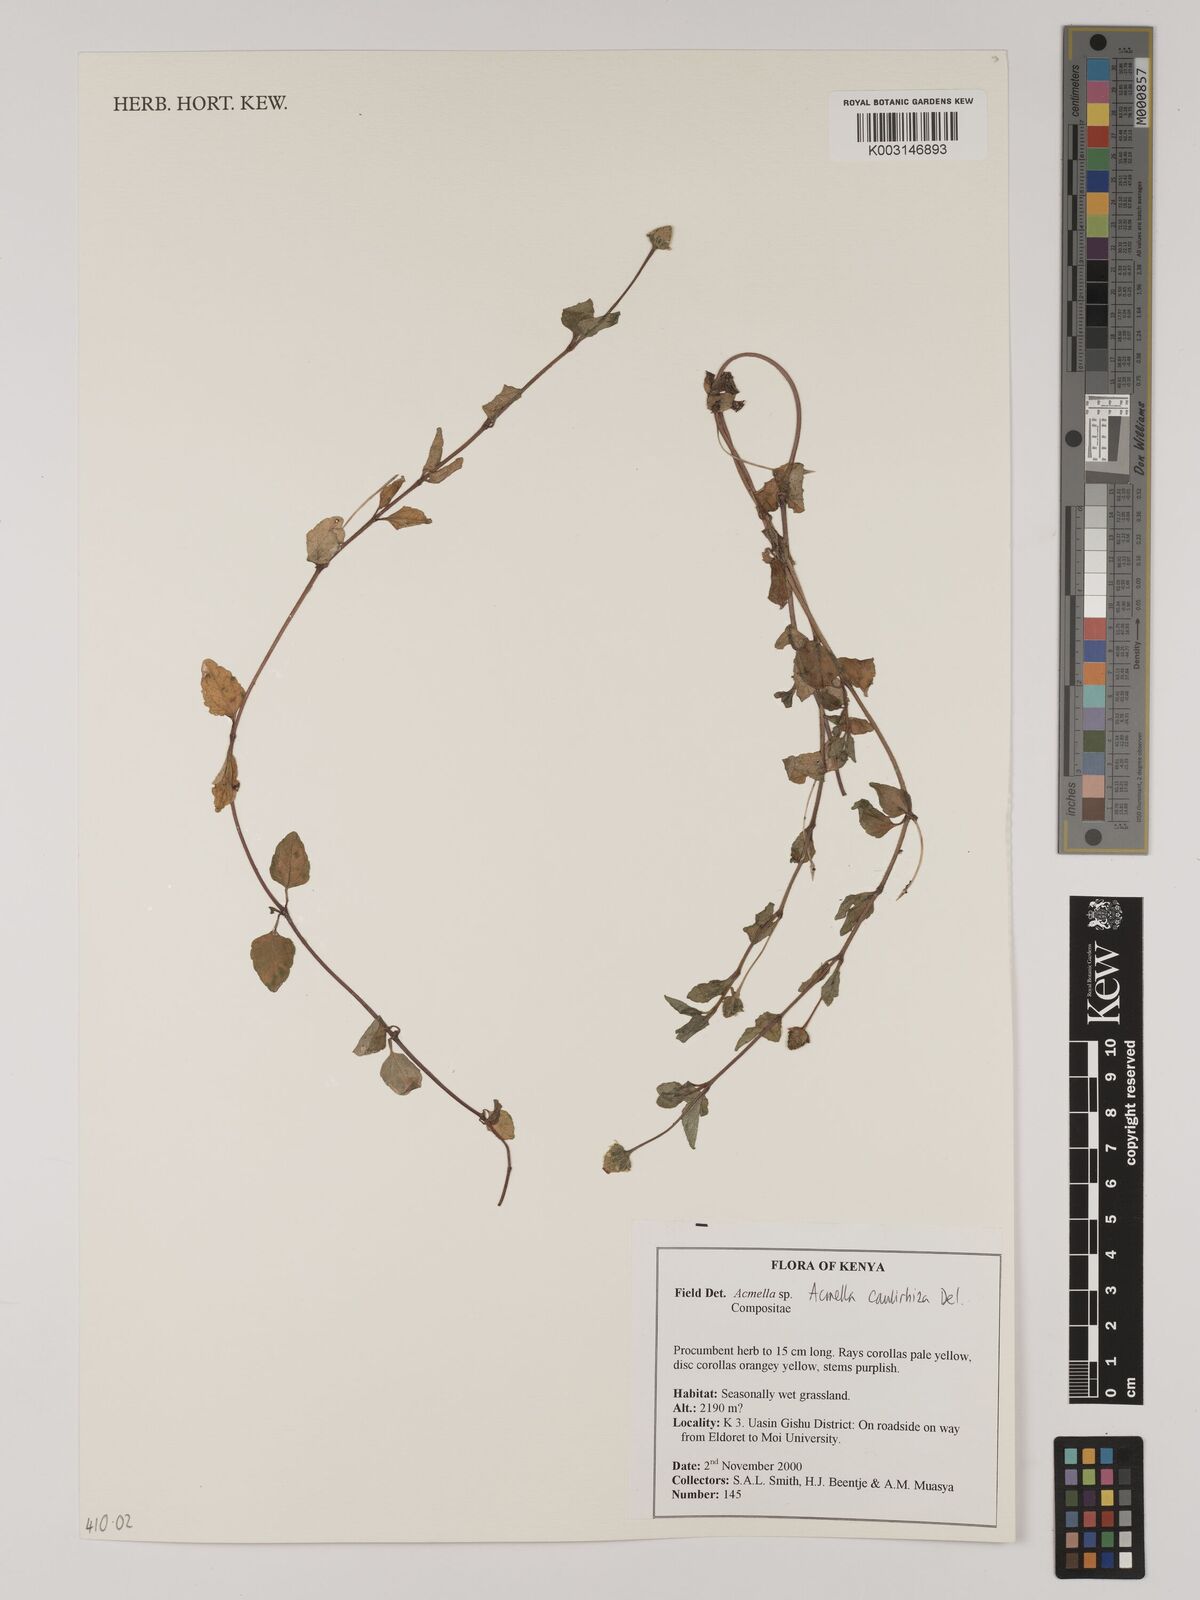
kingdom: Plantae
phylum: Tracheophyta
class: Magnoliopsida
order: Asterales
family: Asteraceae
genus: Acmella
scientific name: Acmella caulirhiza
